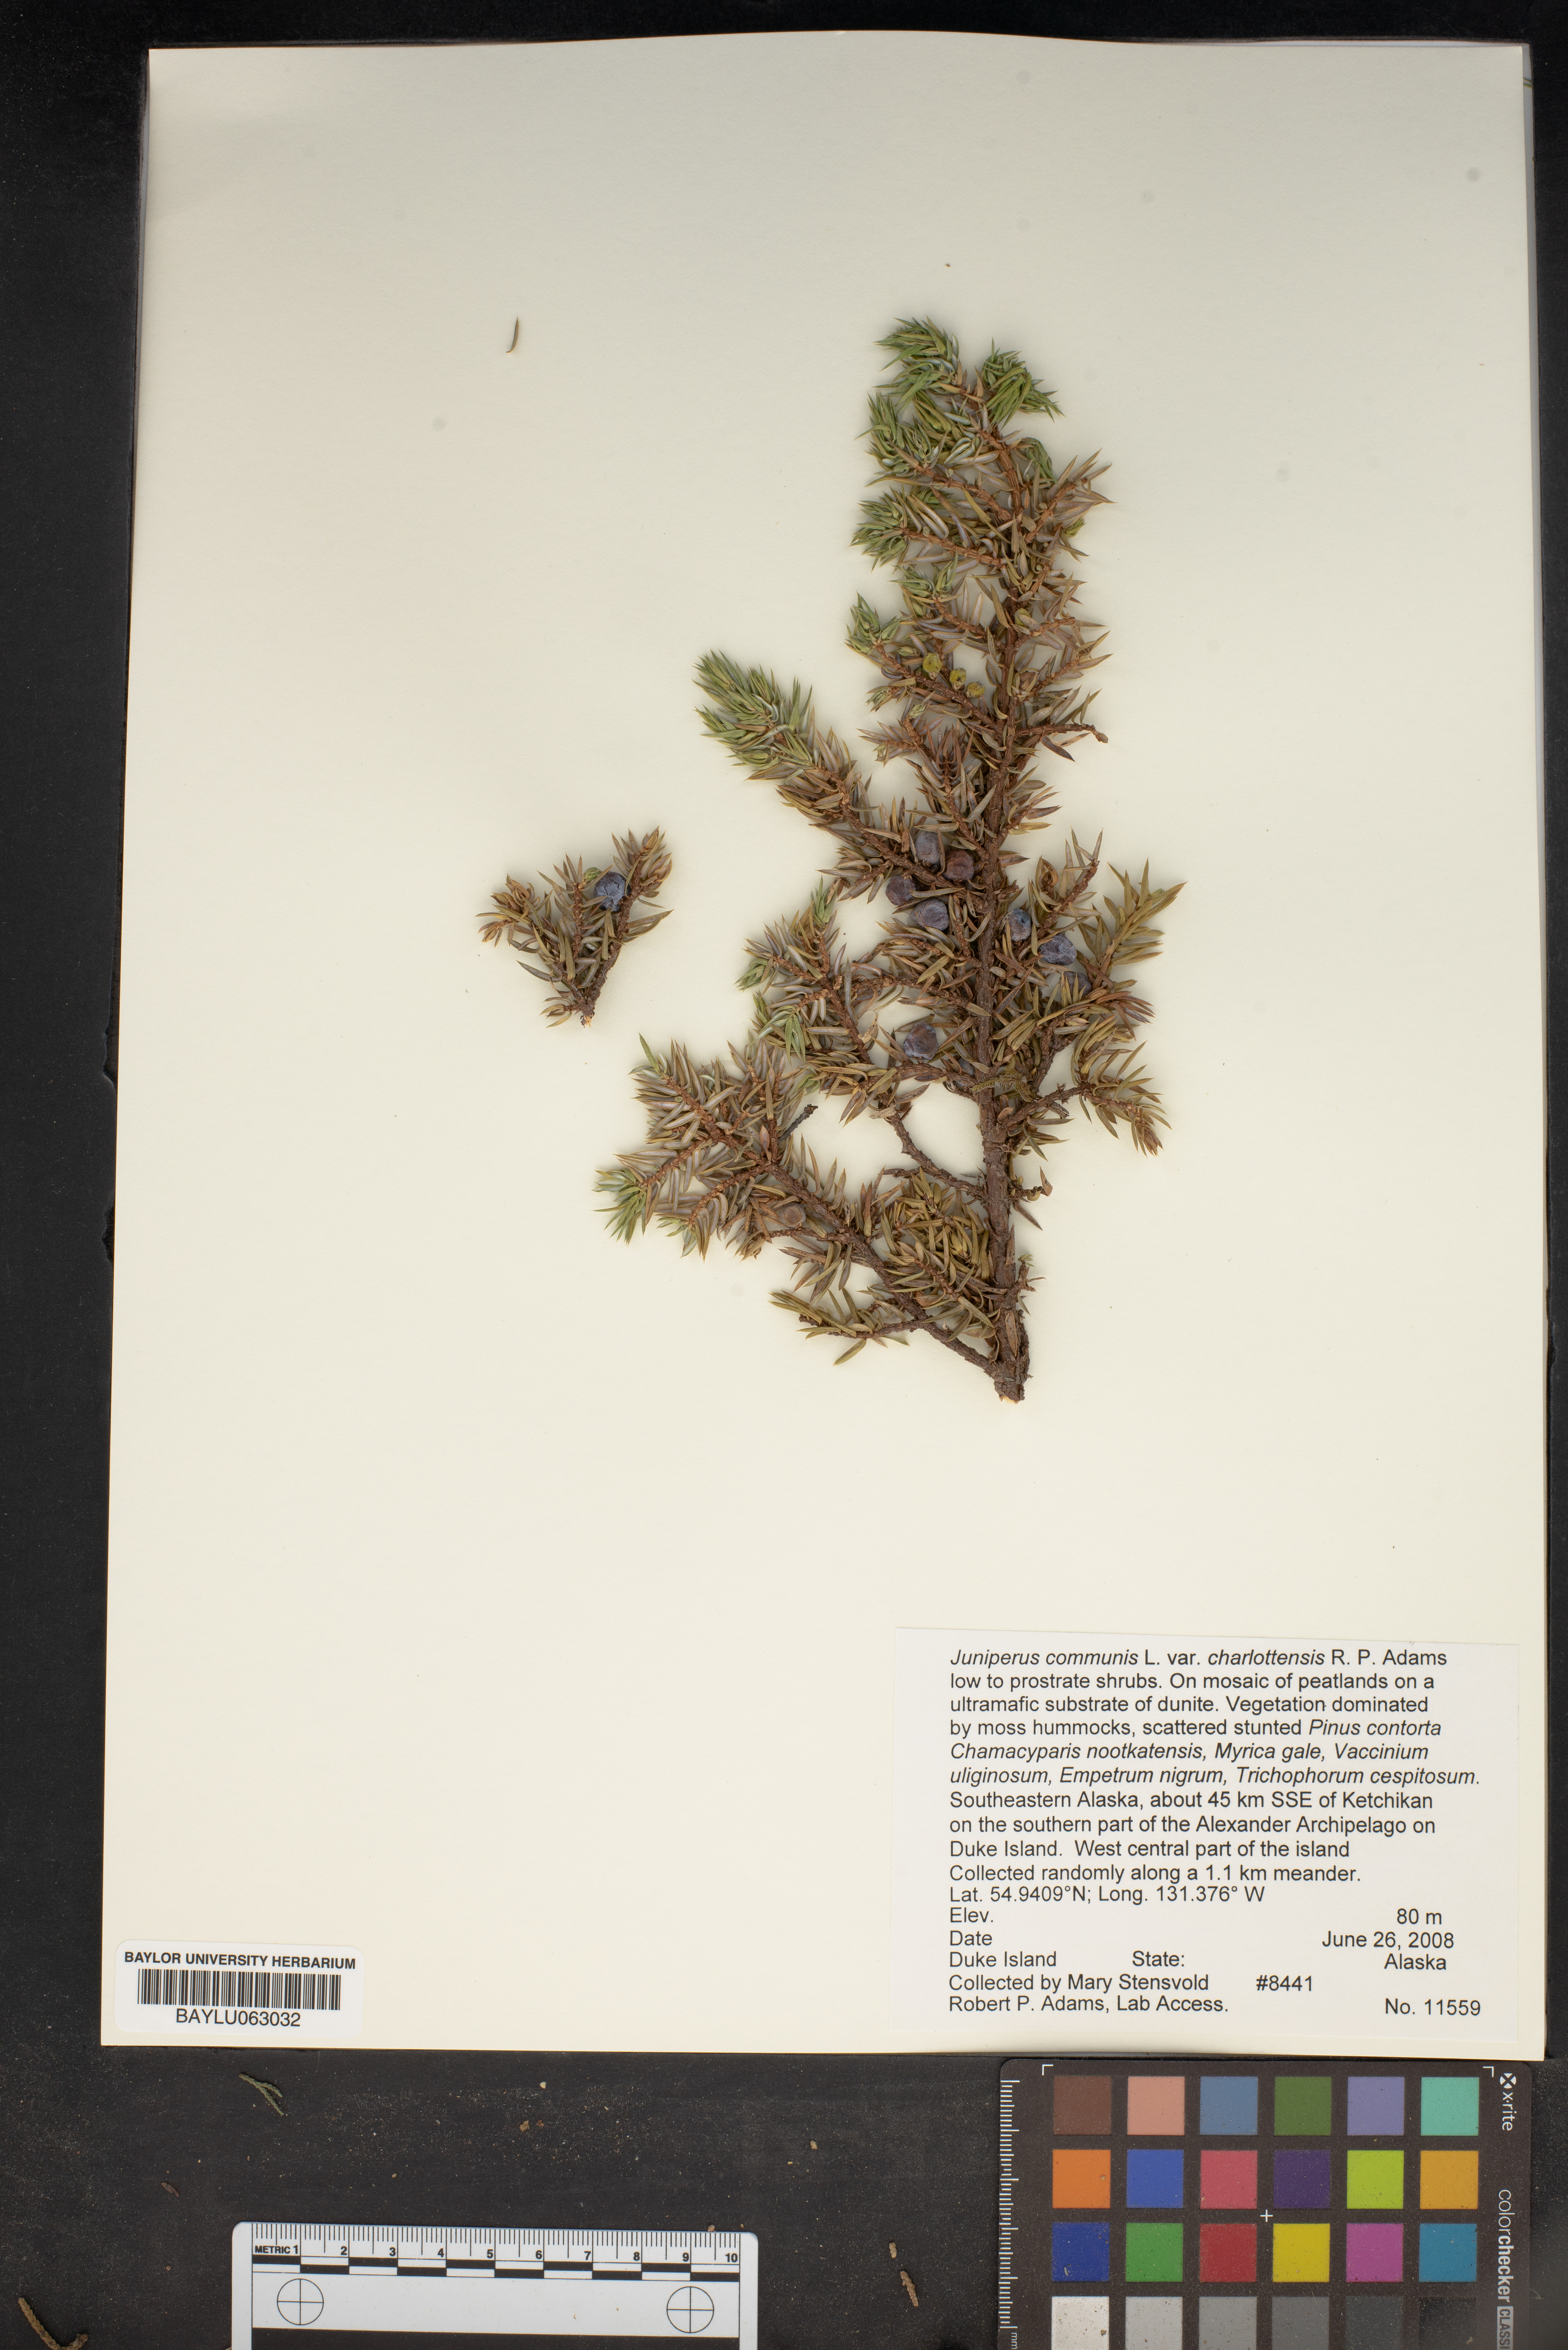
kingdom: Plantae
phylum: Tracheophyta
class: Pinopsida
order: Pinales
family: Cupressaceae
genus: Juniperus
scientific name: Juniperus communis
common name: Common juniper
